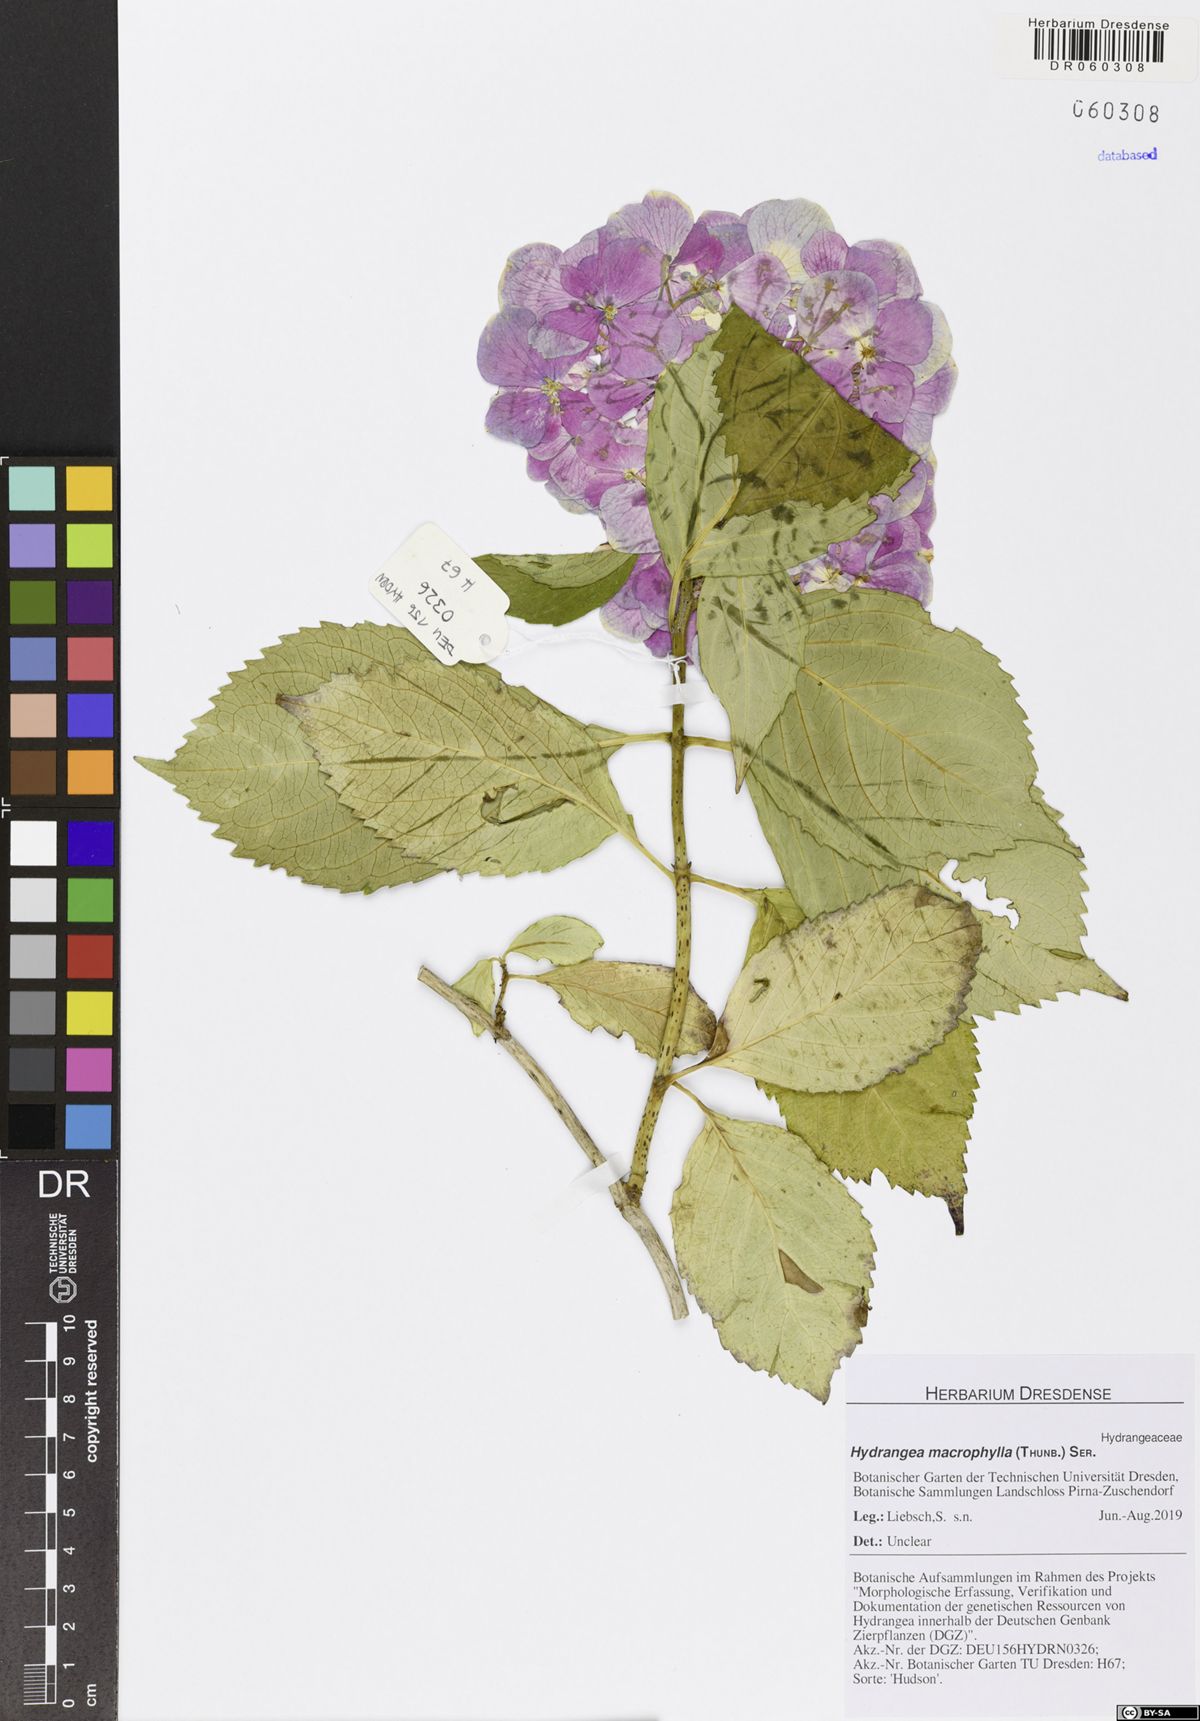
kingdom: Plantae
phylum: Tracheophyta
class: Magnoliopsida
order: Cornales
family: Hydrangeaceae
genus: Hydrangea
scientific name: Hydrangea macrophylla
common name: Hydrangea
